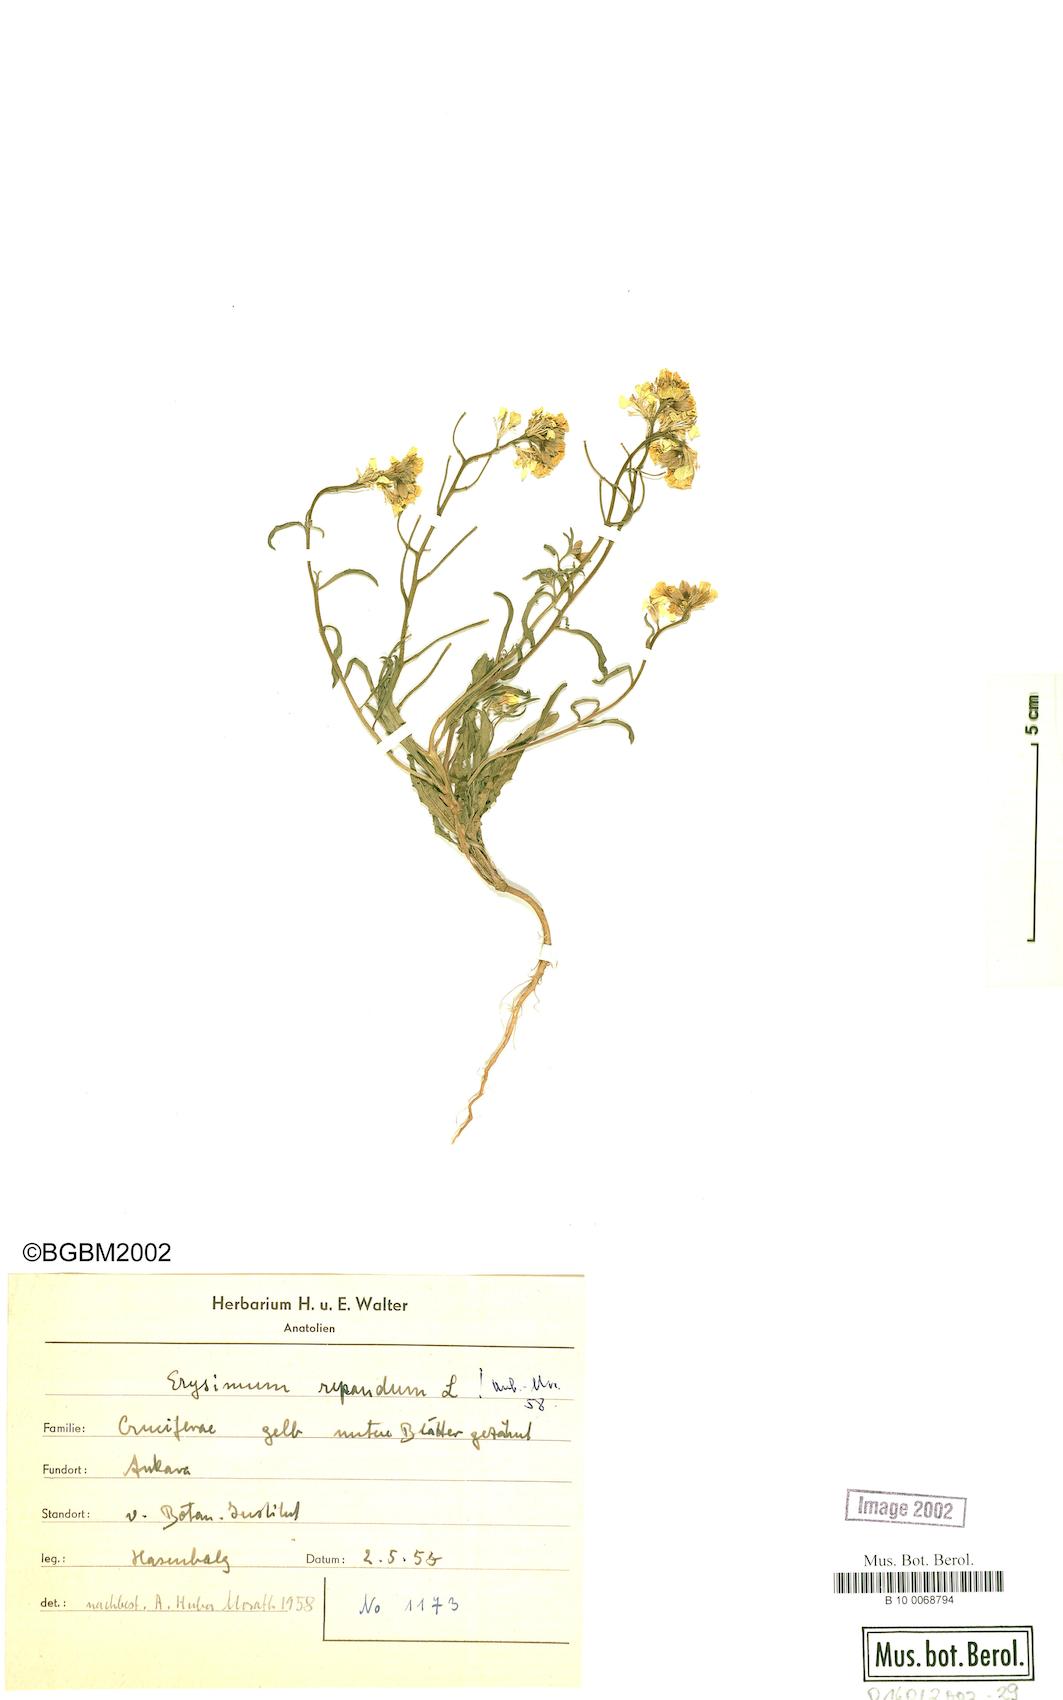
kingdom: Plantae
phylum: Tracheophyta
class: Magnoliopsida
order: Brassicales
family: Brassicaceae
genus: Erysimum
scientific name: Erysimum repandum
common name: Spreading wallflower
